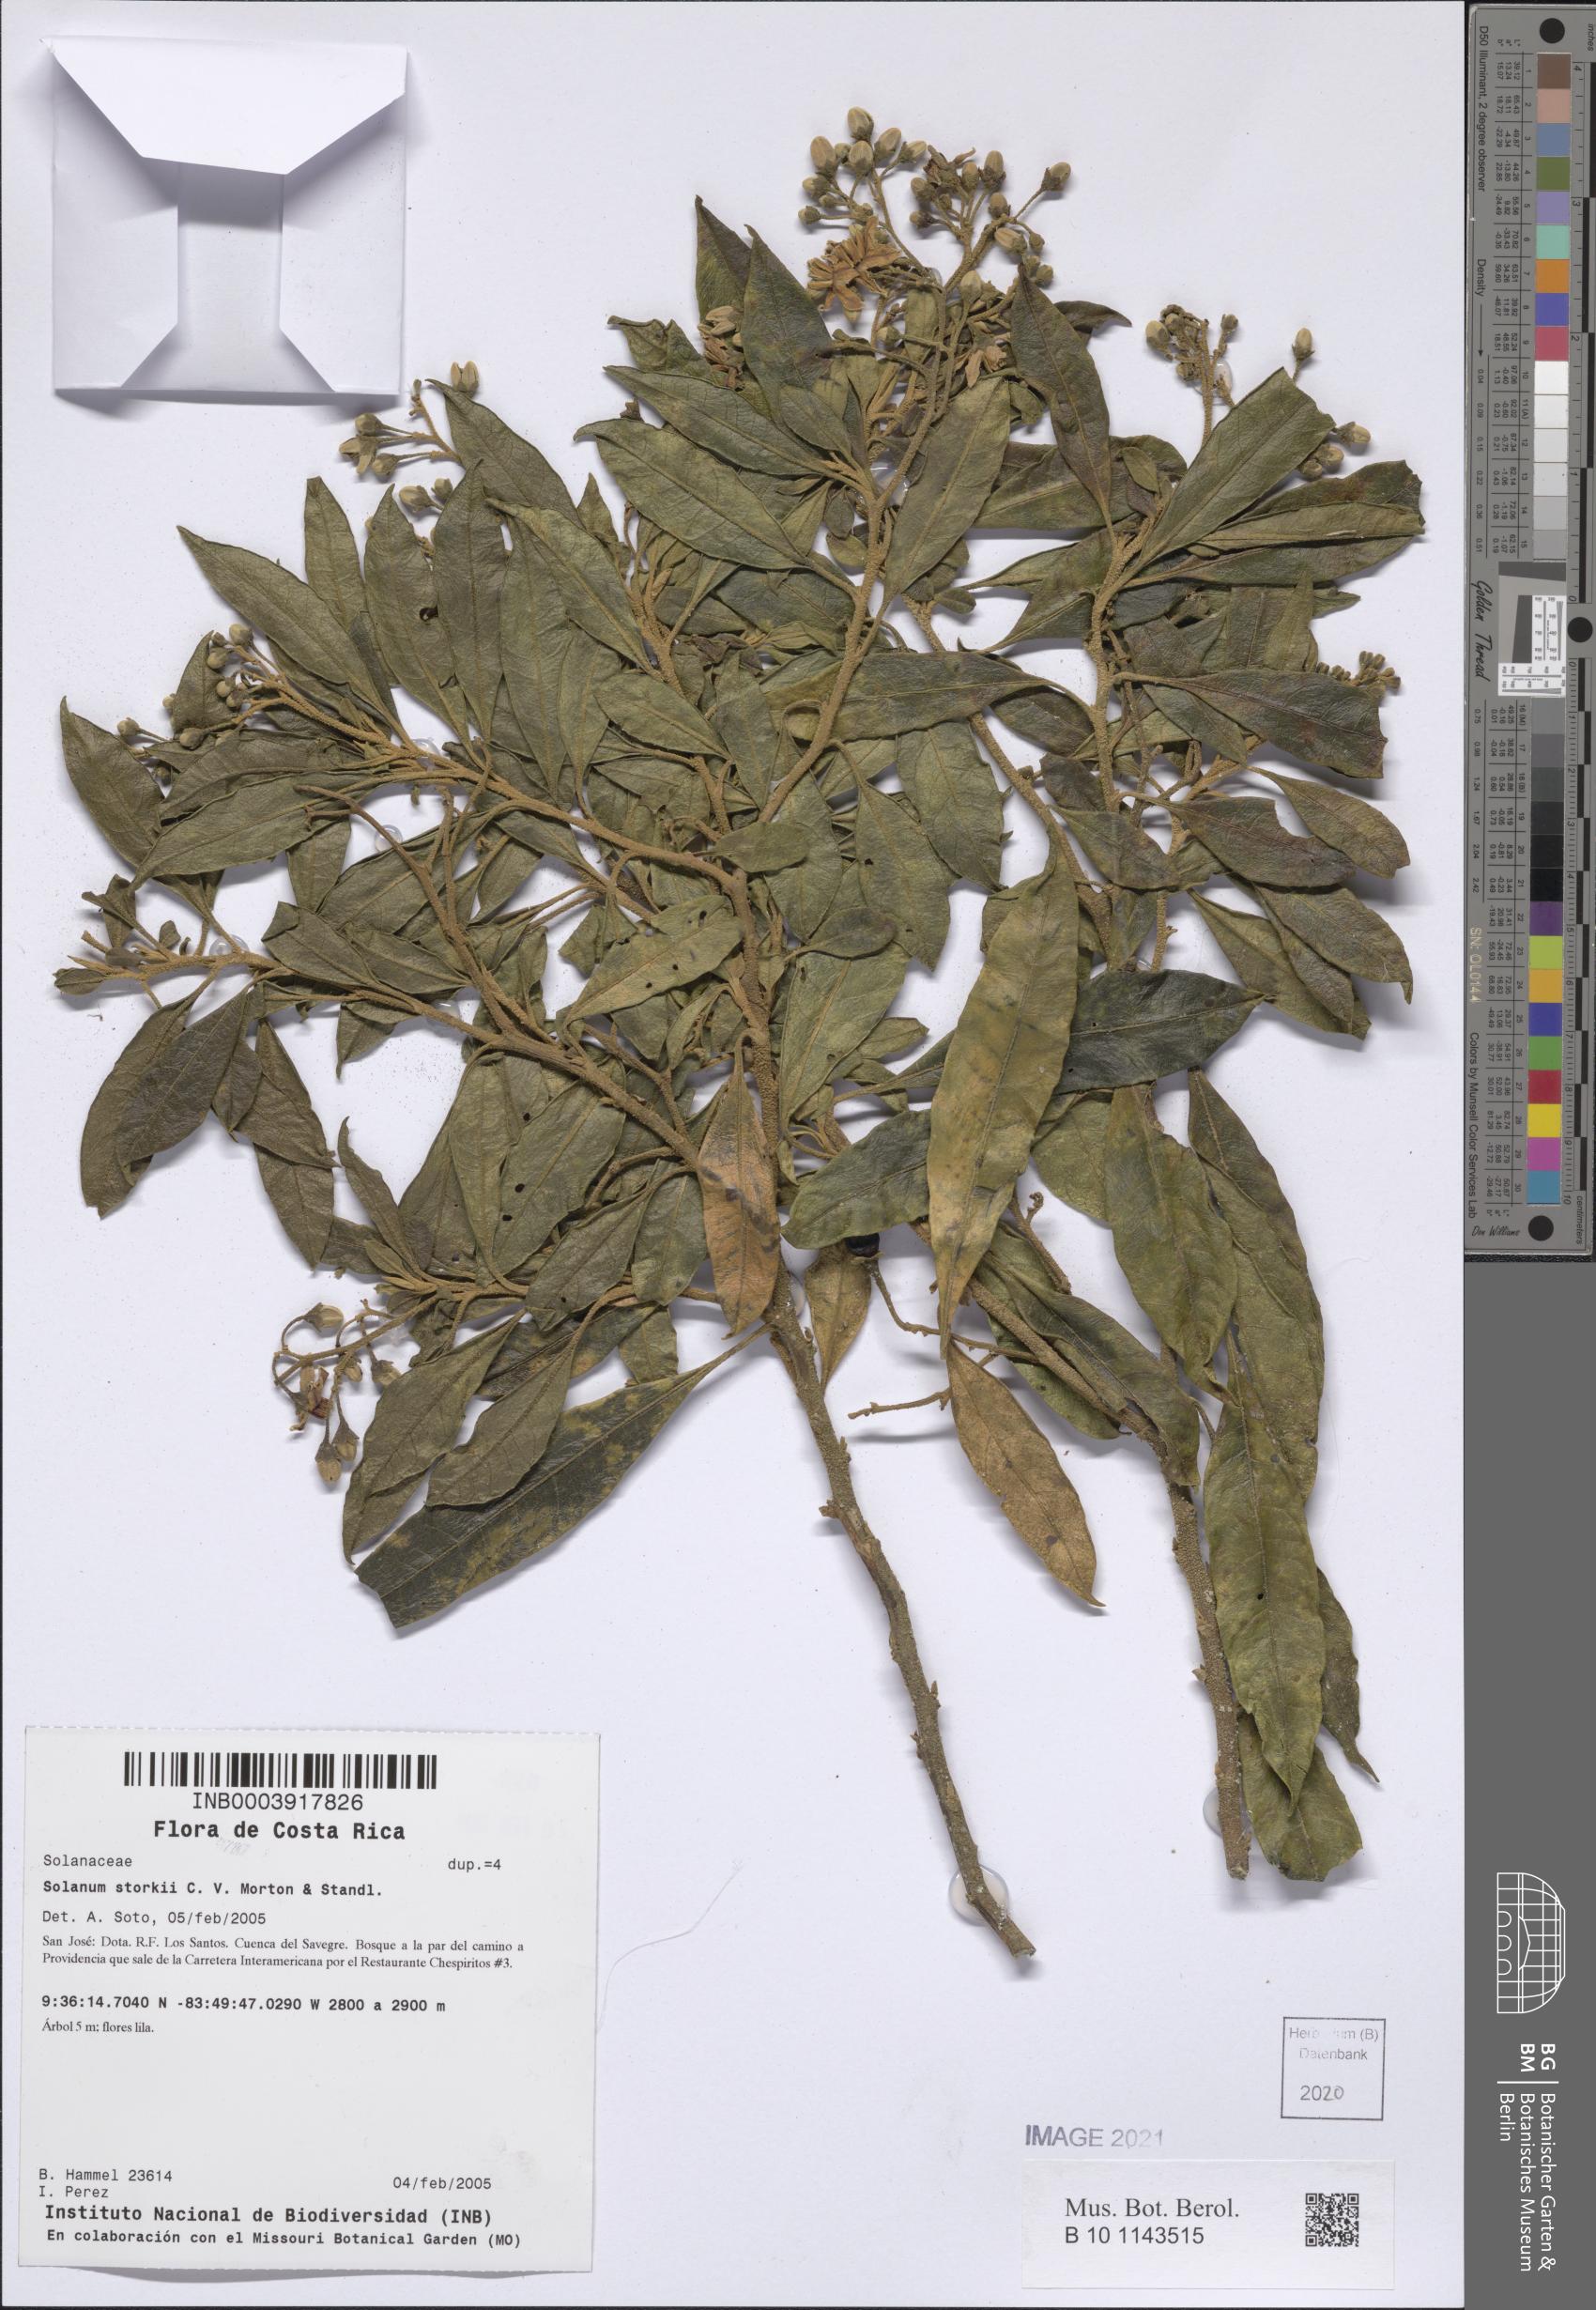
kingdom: Plantae
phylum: Tracheophyta
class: Magnoliopsida
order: Solanales
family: Solanaceae
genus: Solanum
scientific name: Solanum storkii
